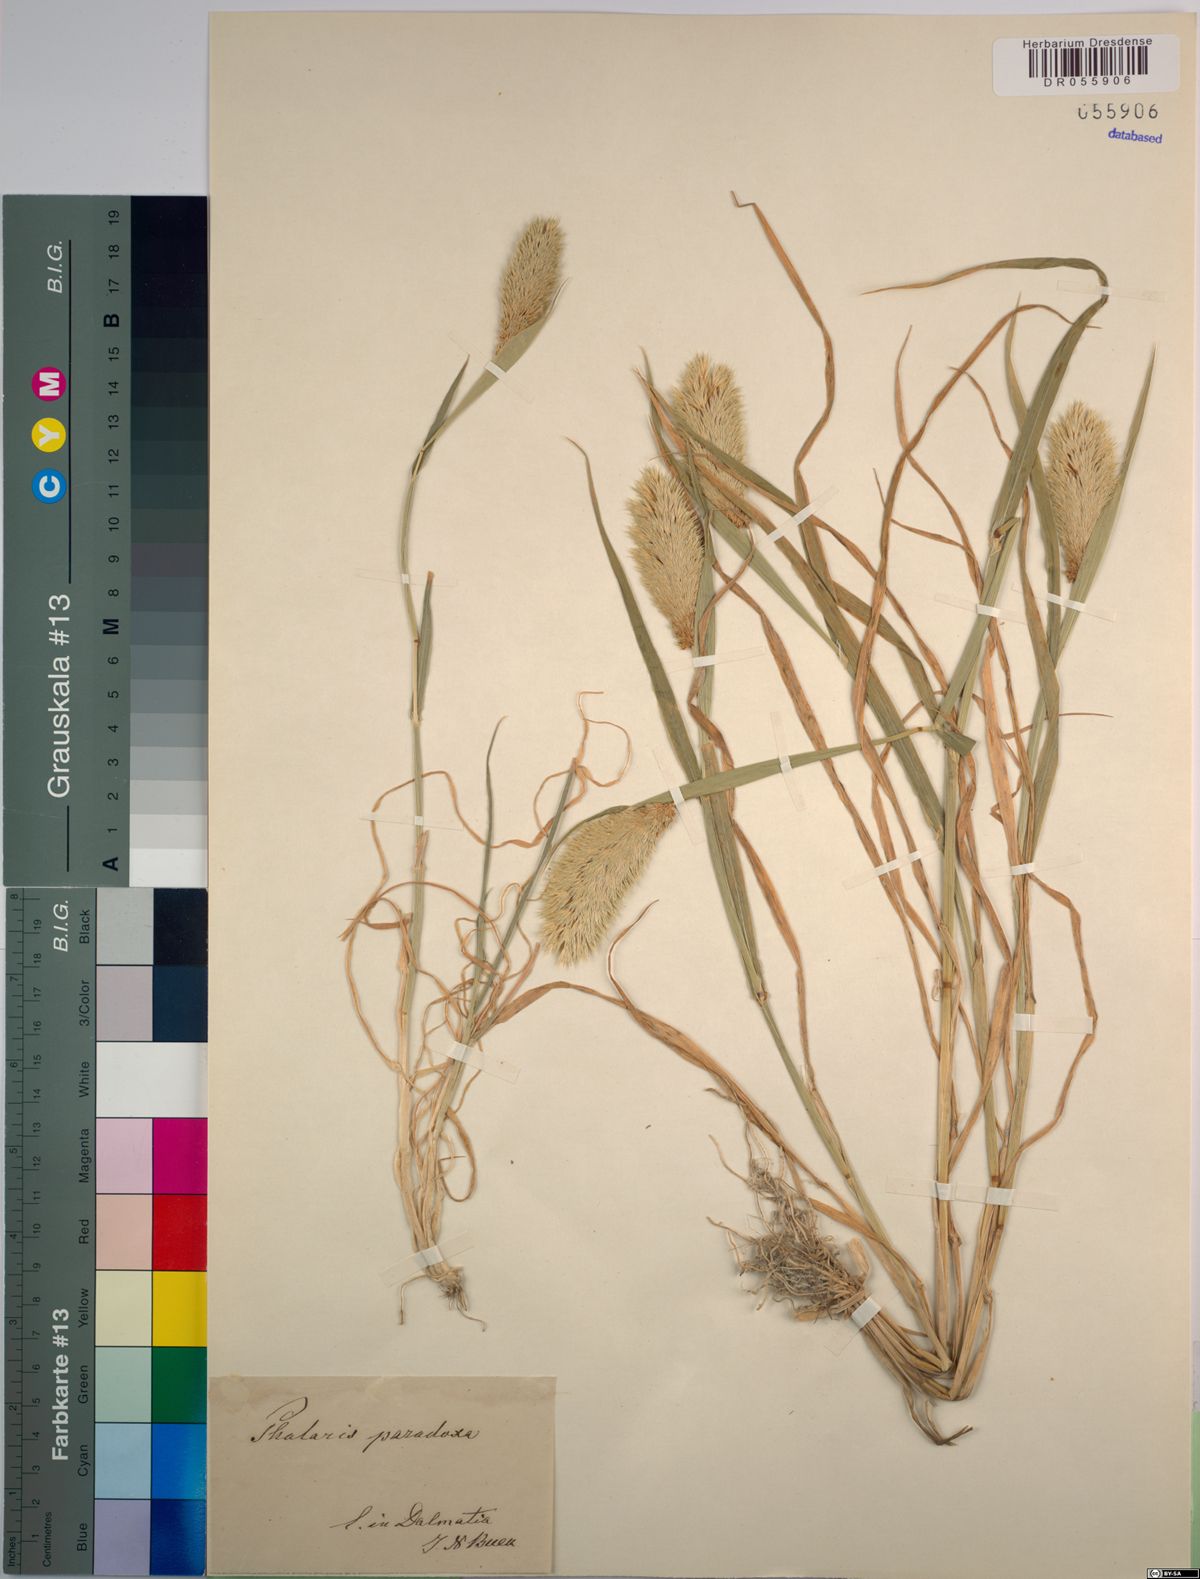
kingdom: Plantae
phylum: Tracheophyta
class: Liliopsida
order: Poales
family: Poaceae
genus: Phalaris
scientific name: Phalaris paradoxa
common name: Awned canary-grass
